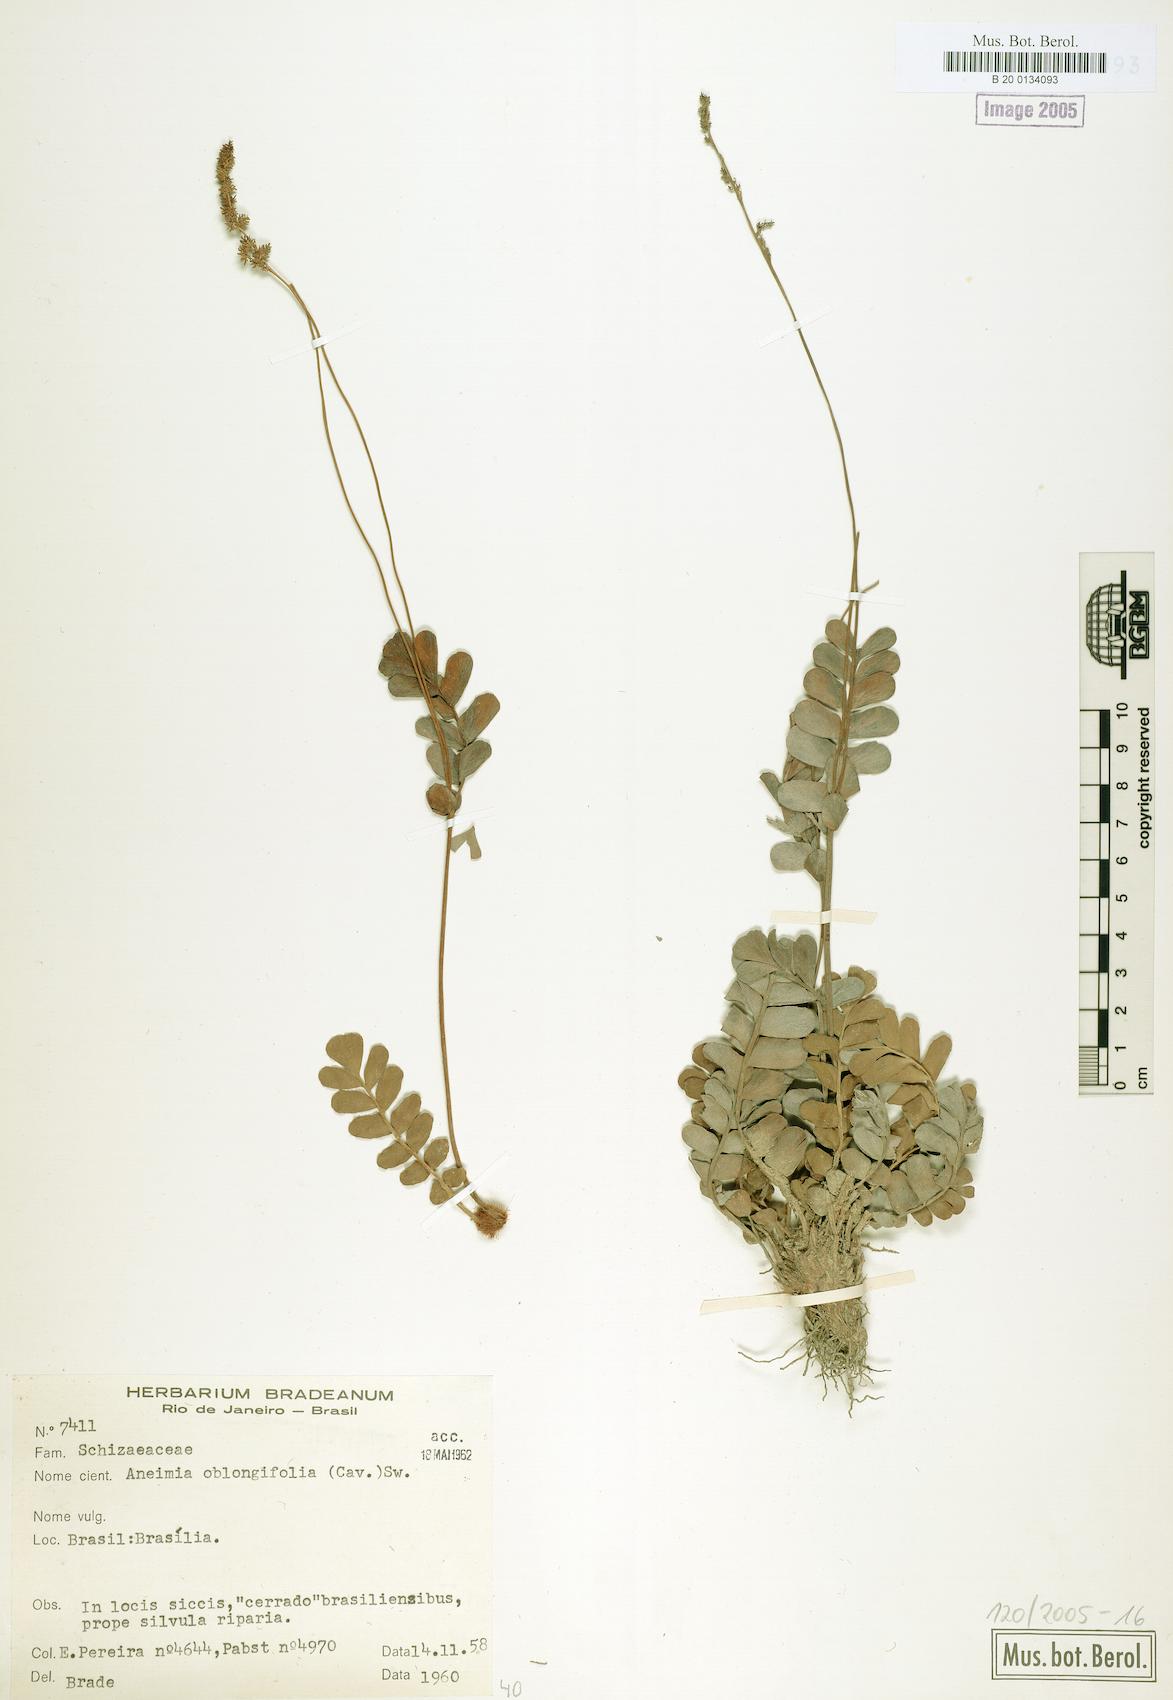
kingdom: Plantae
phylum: Tracheophyta
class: Polypodiopsida
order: Schizaeales
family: Anemiaceae
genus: Anemia
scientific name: Anemia mynsseniana
